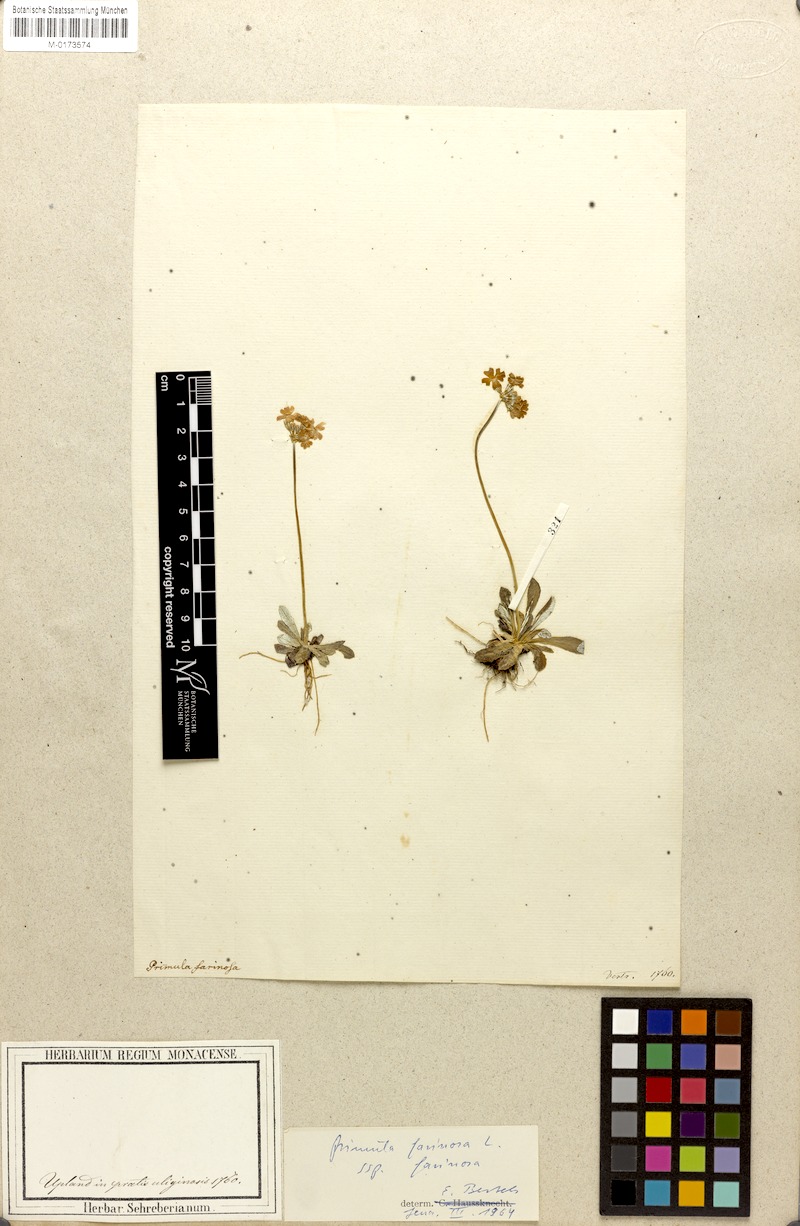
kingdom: Plantae
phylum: Tracheophyta
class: Magnoliopsida
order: Ericales
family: Primulaceae
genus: Primula
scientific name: Primula farinosa
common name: Bird's-eye primrose
